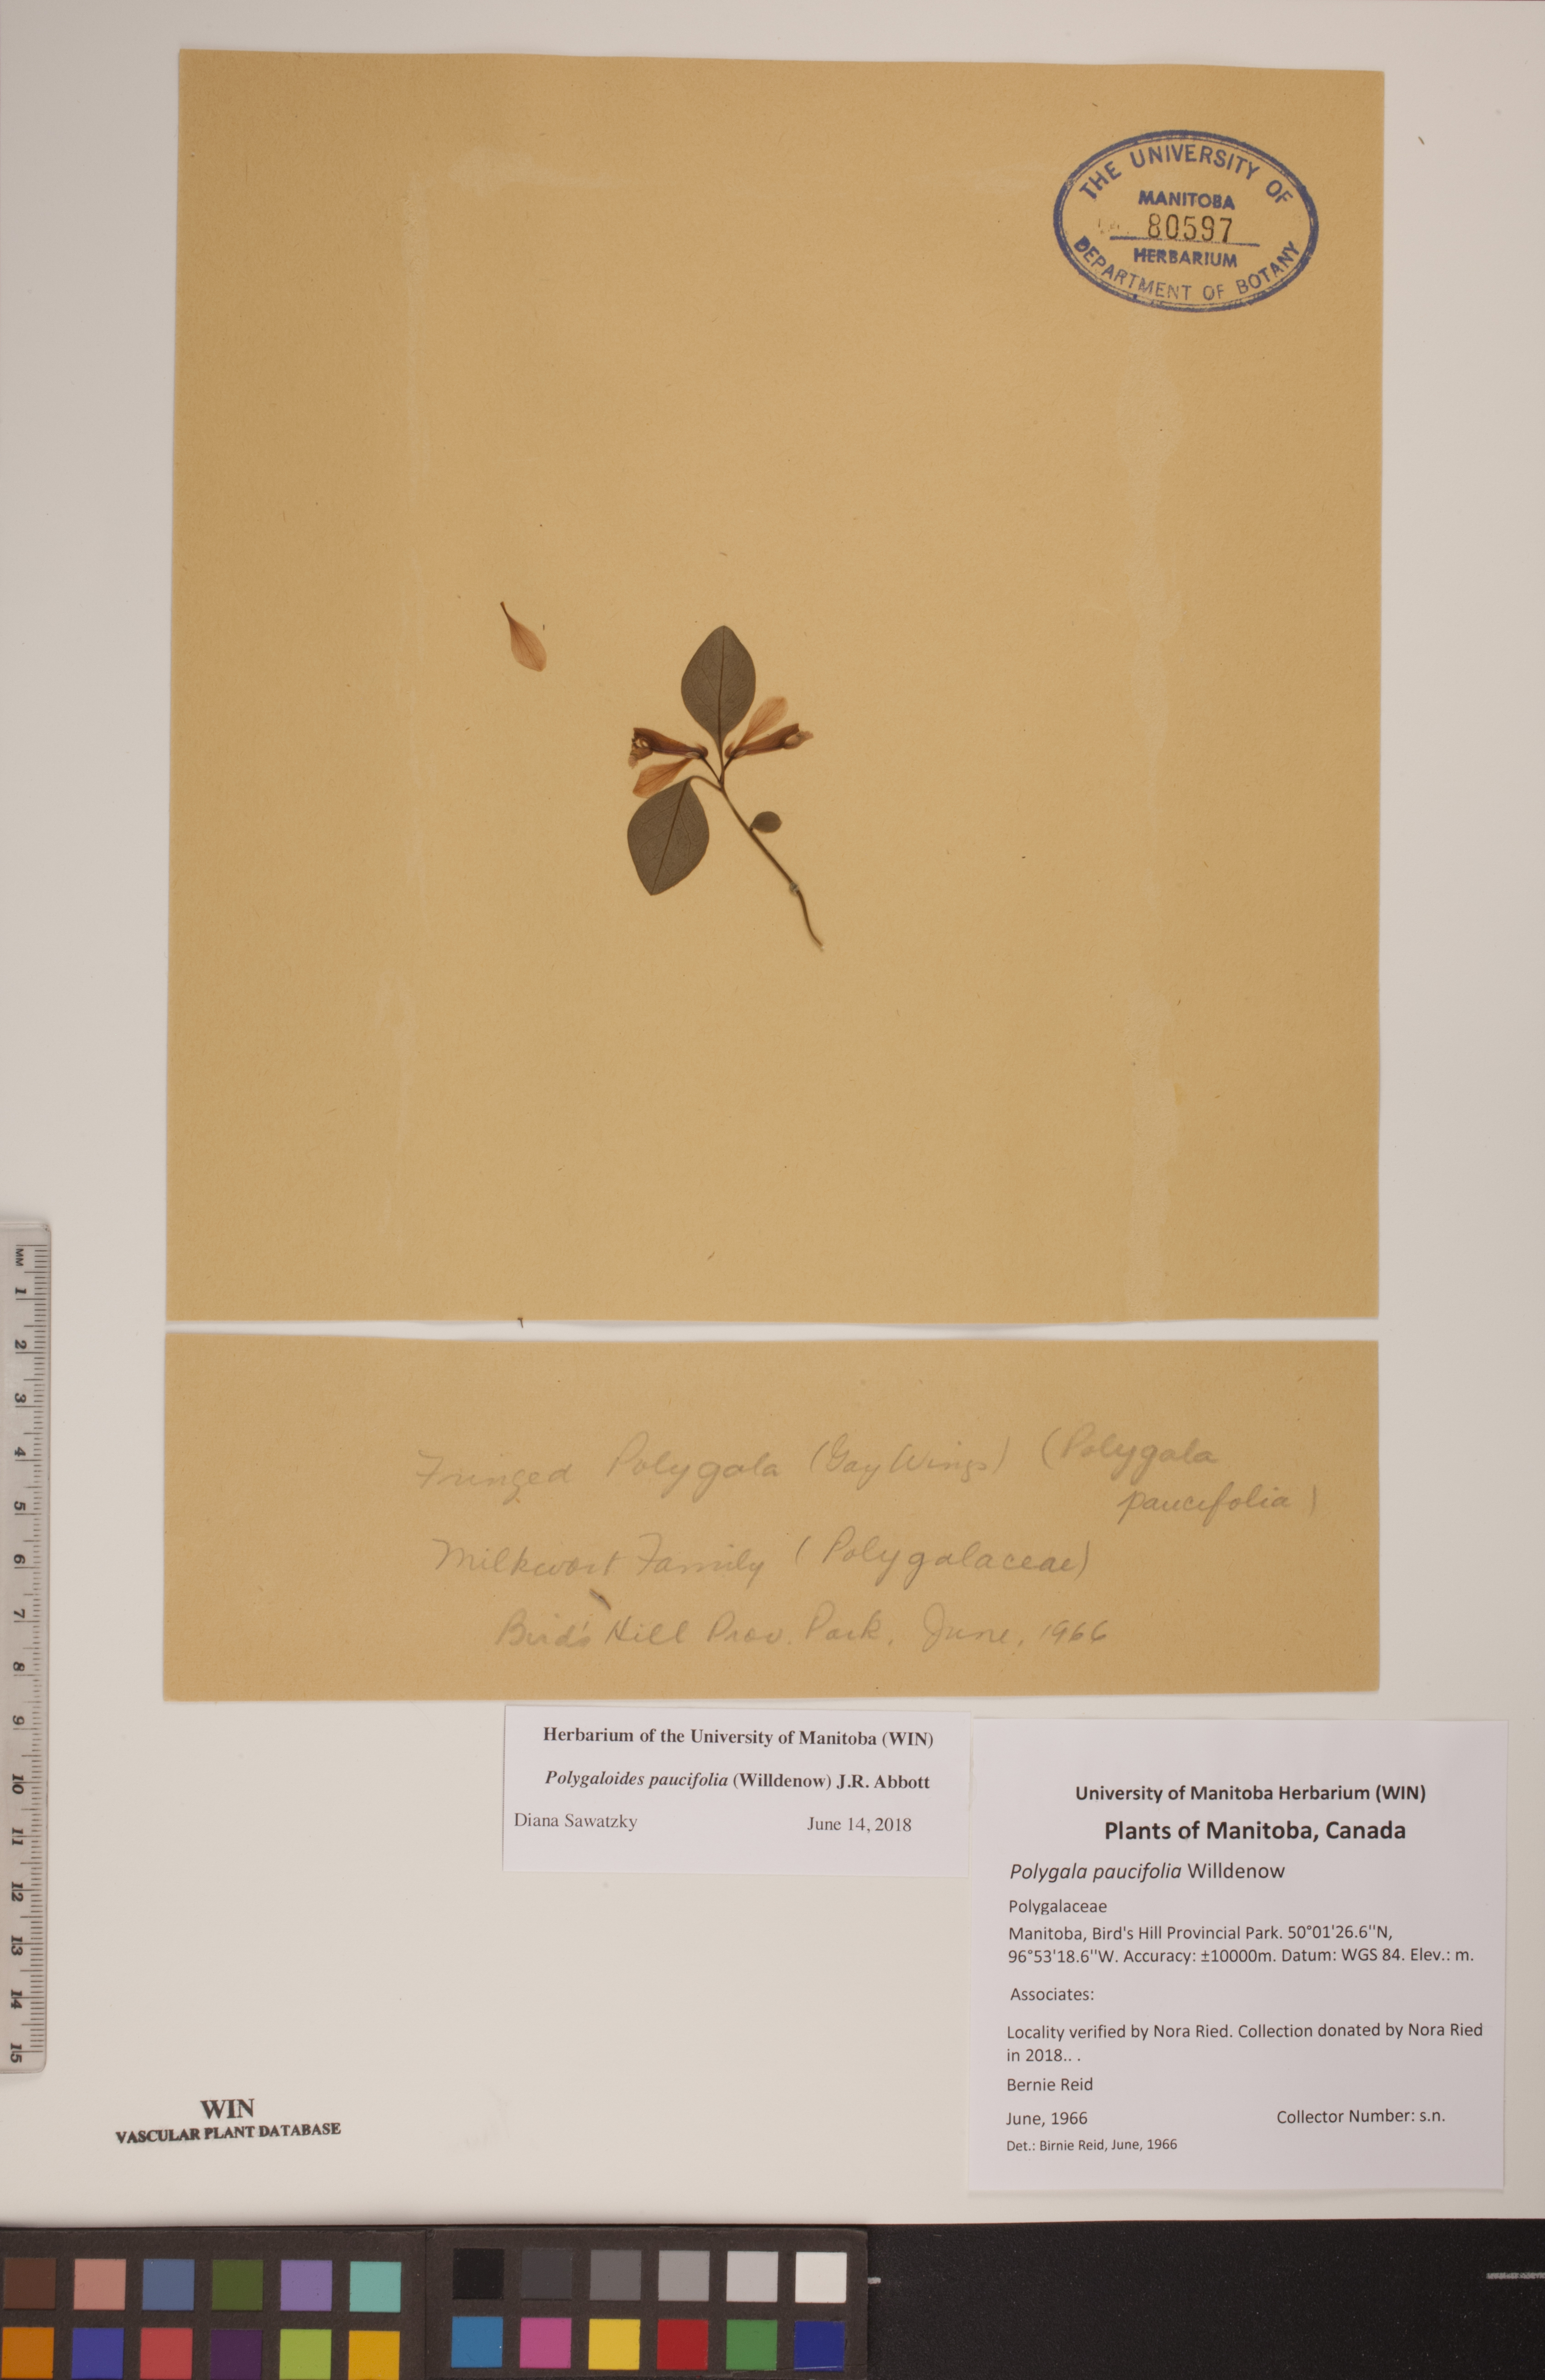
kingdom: Plantae
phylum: Tracheophyta
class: Magnoliopsida
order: Fabales
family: Polygalaceae
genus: Polygaloides
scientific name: Polygaloides paucifolia
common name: Bird-on-the-wing
